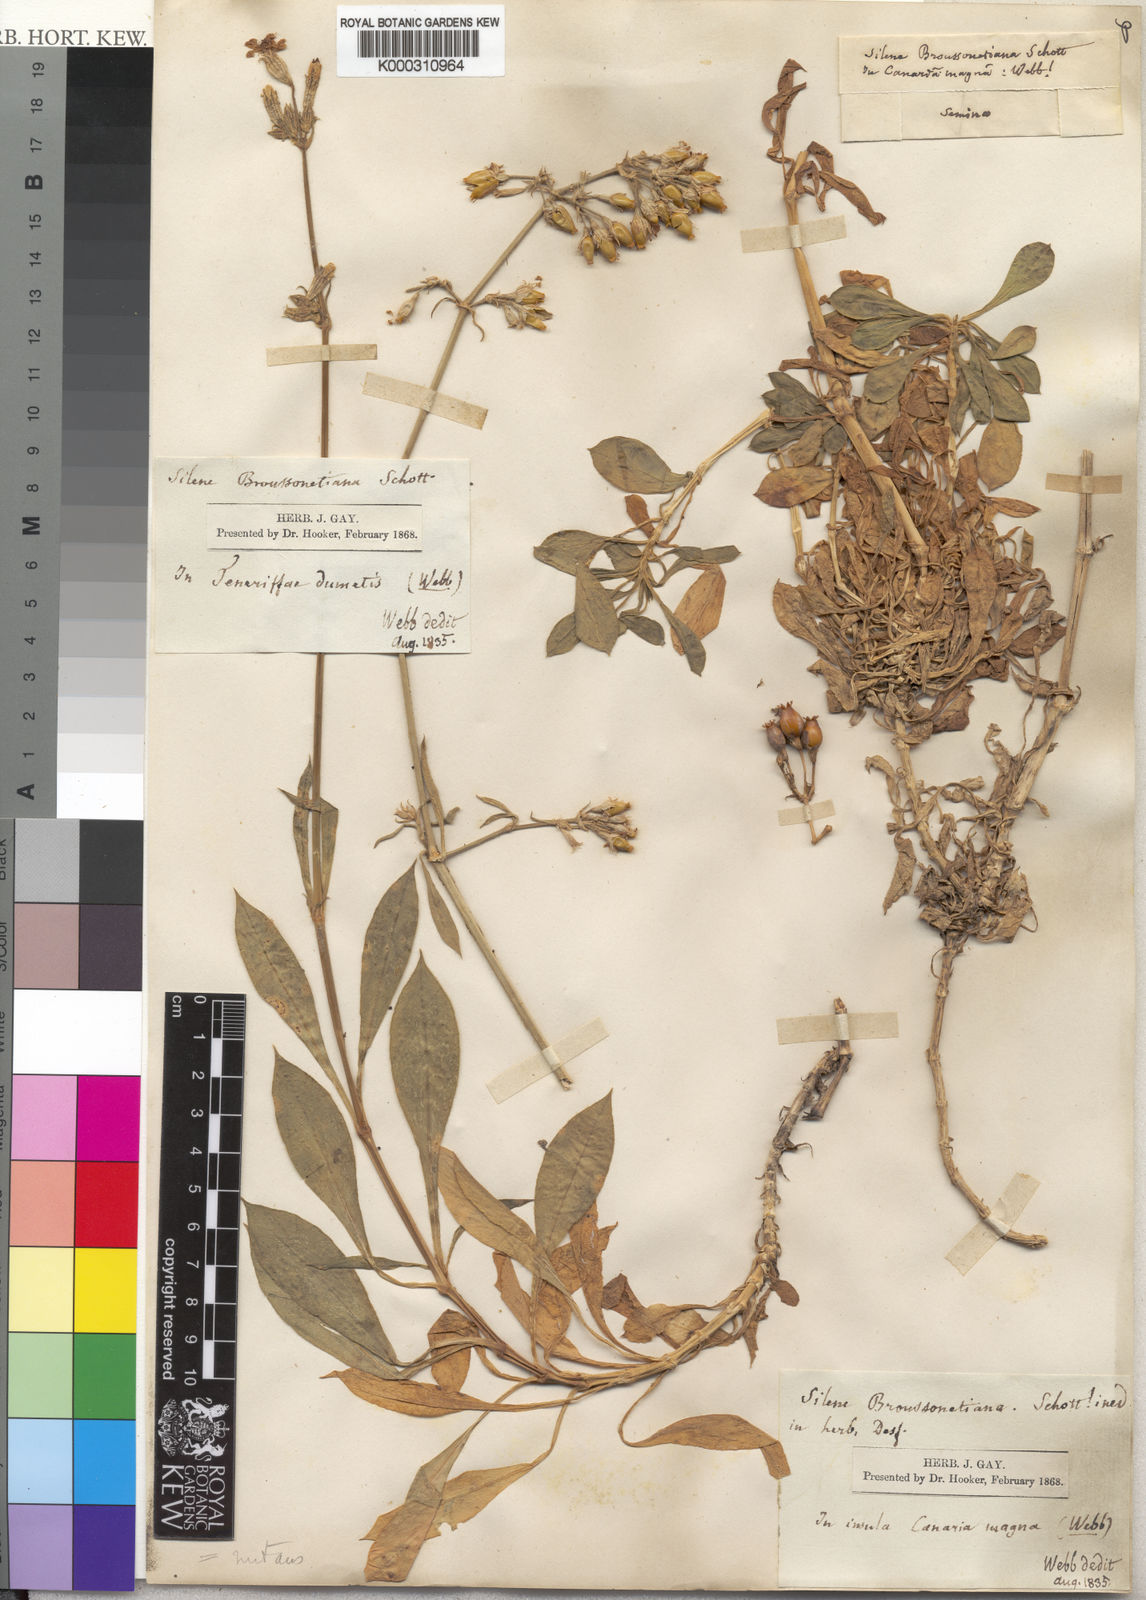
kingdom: Plantae
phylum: Tracheophyta
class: Magnoliopsida
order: Caryophyllales
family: Caryophyllaceae
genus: Silene
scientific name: Silene
